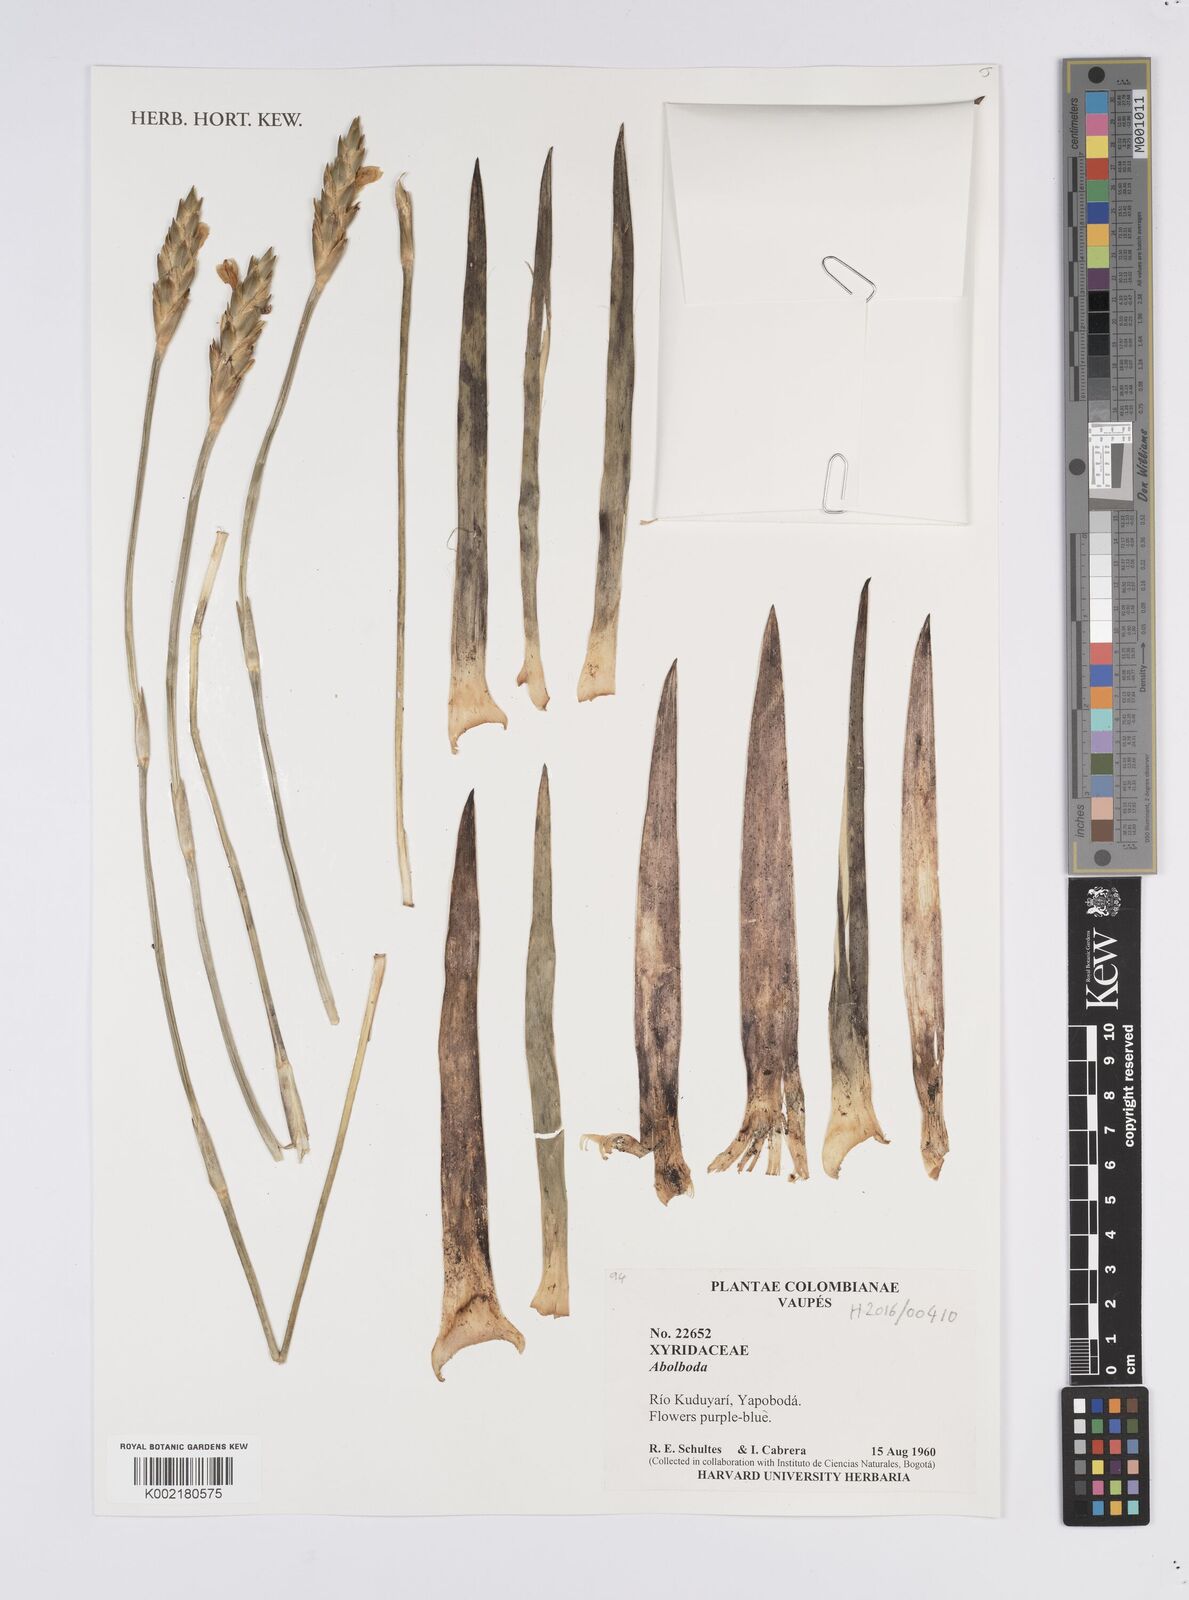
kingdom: Plantae
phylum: Tracheophyta
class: Liliopsida
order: Poales
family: Xyridaceae
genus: Abolboda
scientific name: Abolboda
